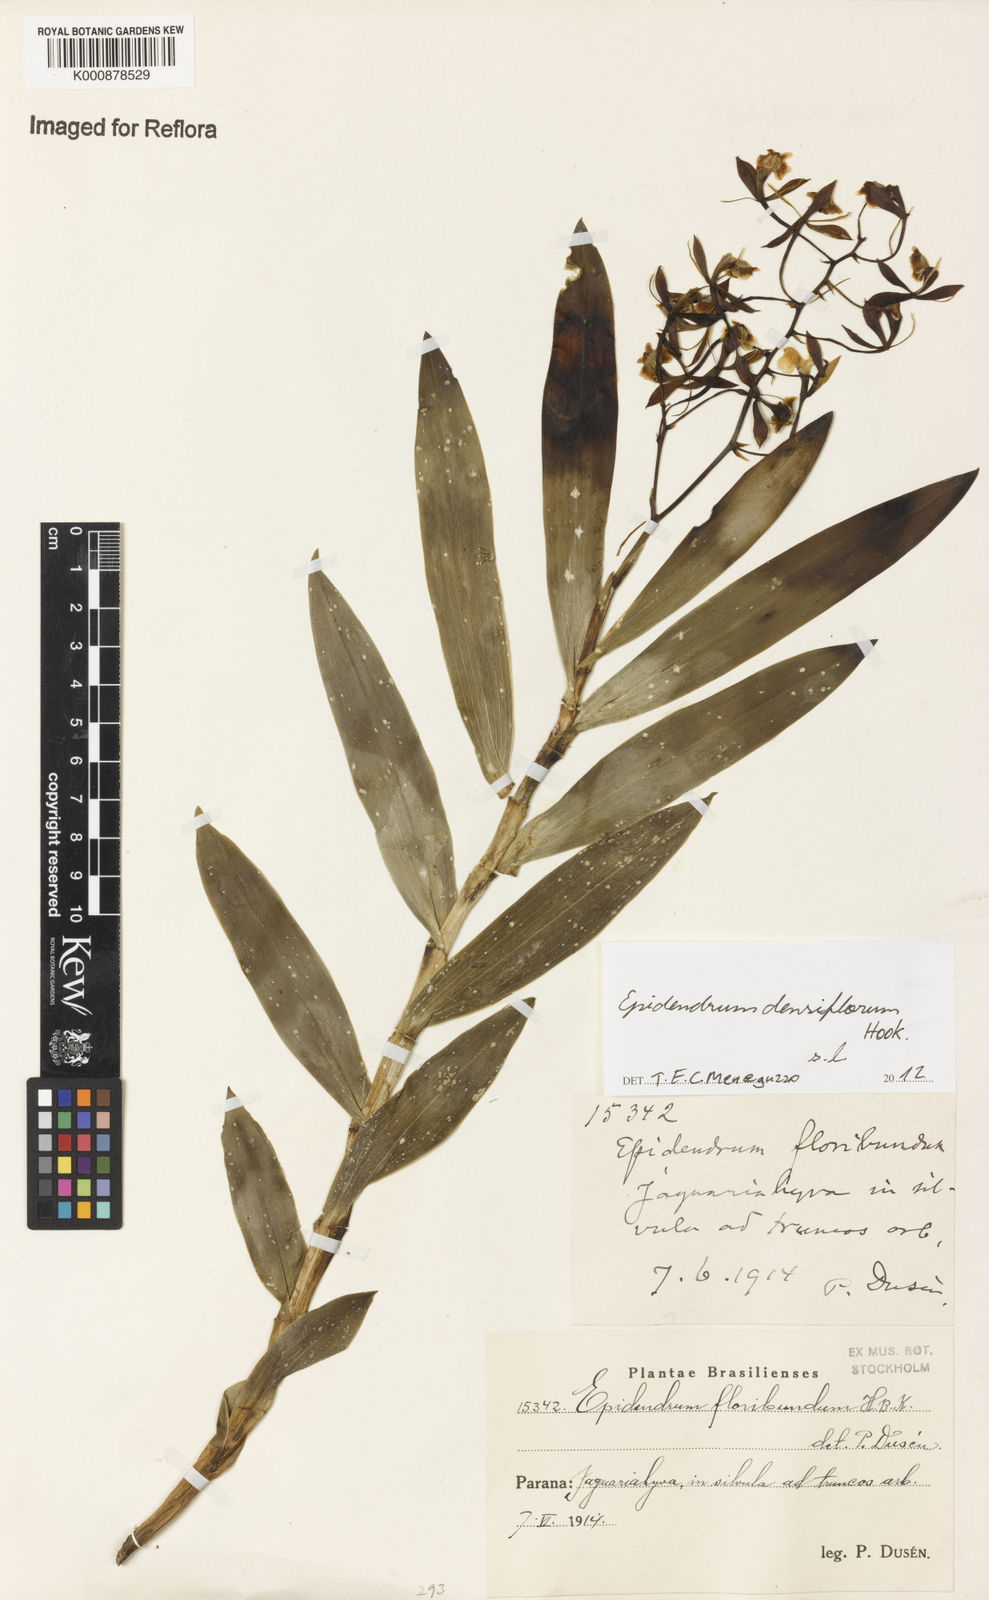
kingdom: Plantae
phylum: Tracheophyta
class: Liliopsida
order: Asparagales
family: Orchidaceae
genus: Epidendrum
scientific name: Epidendrum densiflorum
